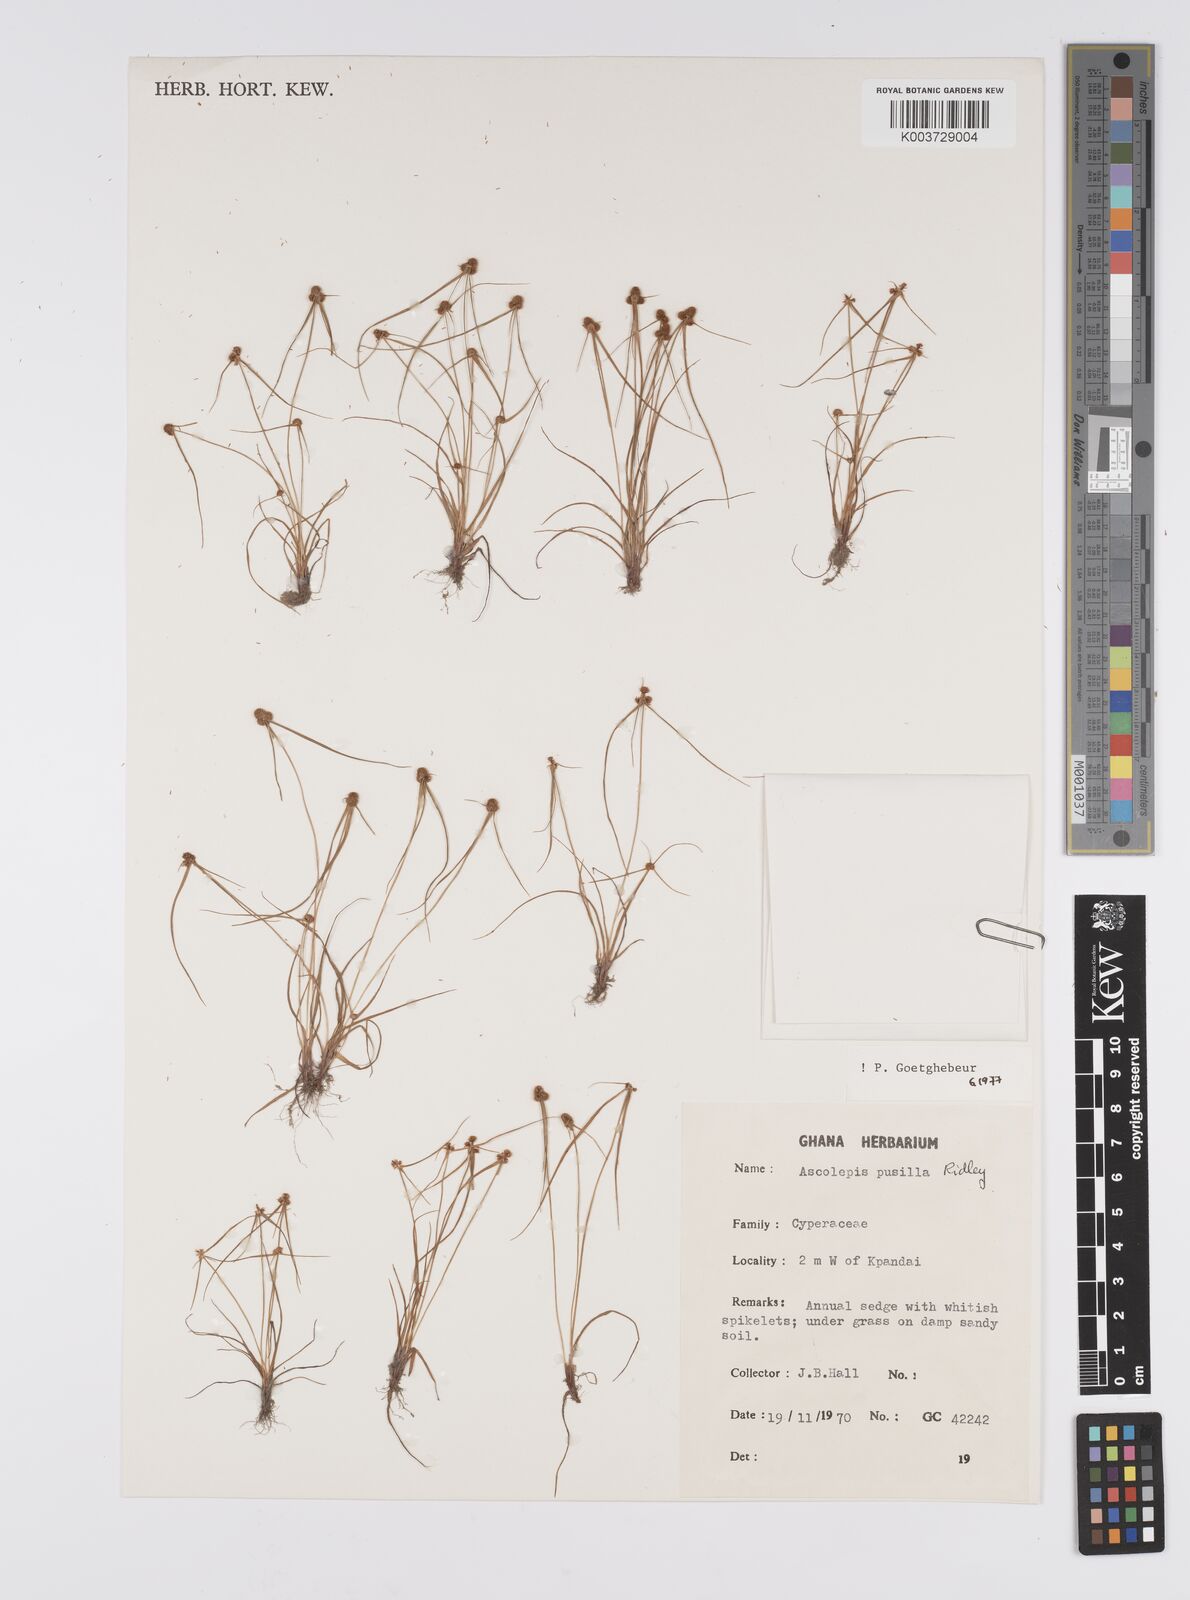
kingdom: Plantae
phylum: Tracheophyta
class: Liliopsida
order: Poales
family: Cyperaceae
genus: Ascolepis
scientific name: Ascolepis
